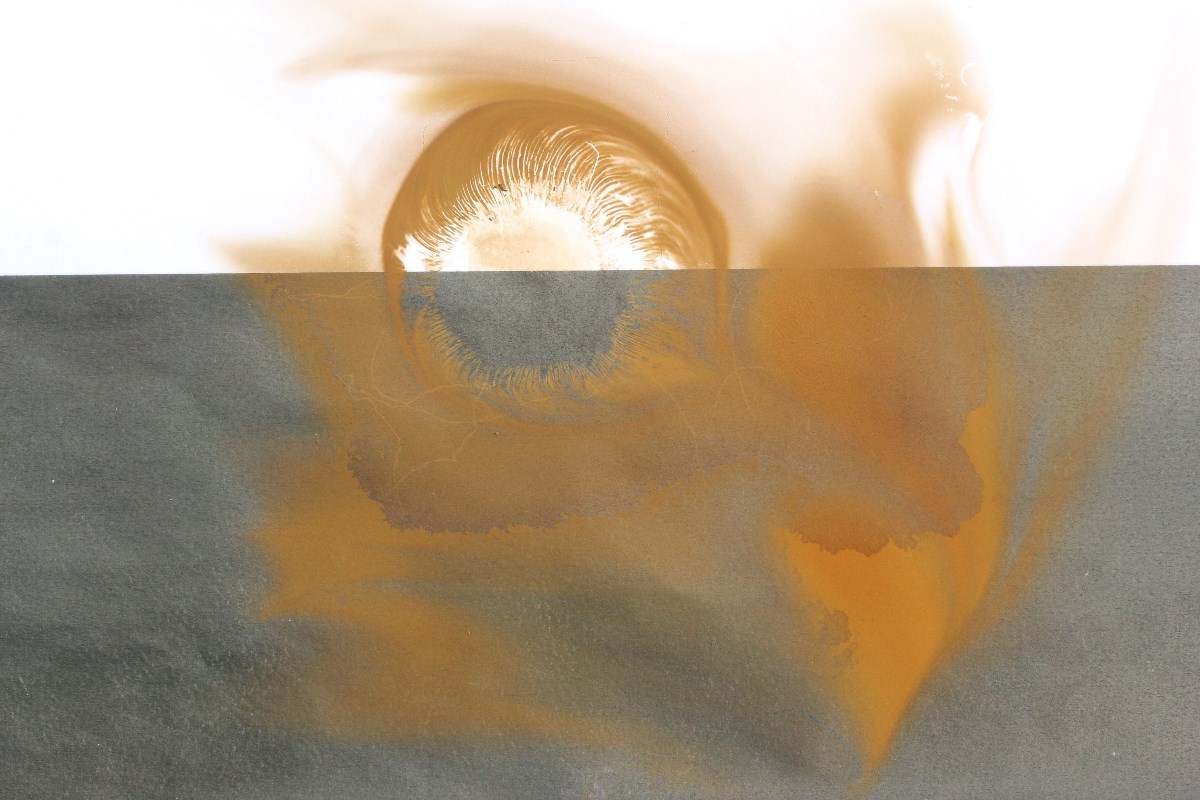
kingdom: Fungi
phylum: Basidiomycota
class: Agaricomycetes
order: Boletales
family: Paxillaceae
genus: Paxillus
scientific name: Paxillus obscurisporus
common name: mahognisporet netbladhat
